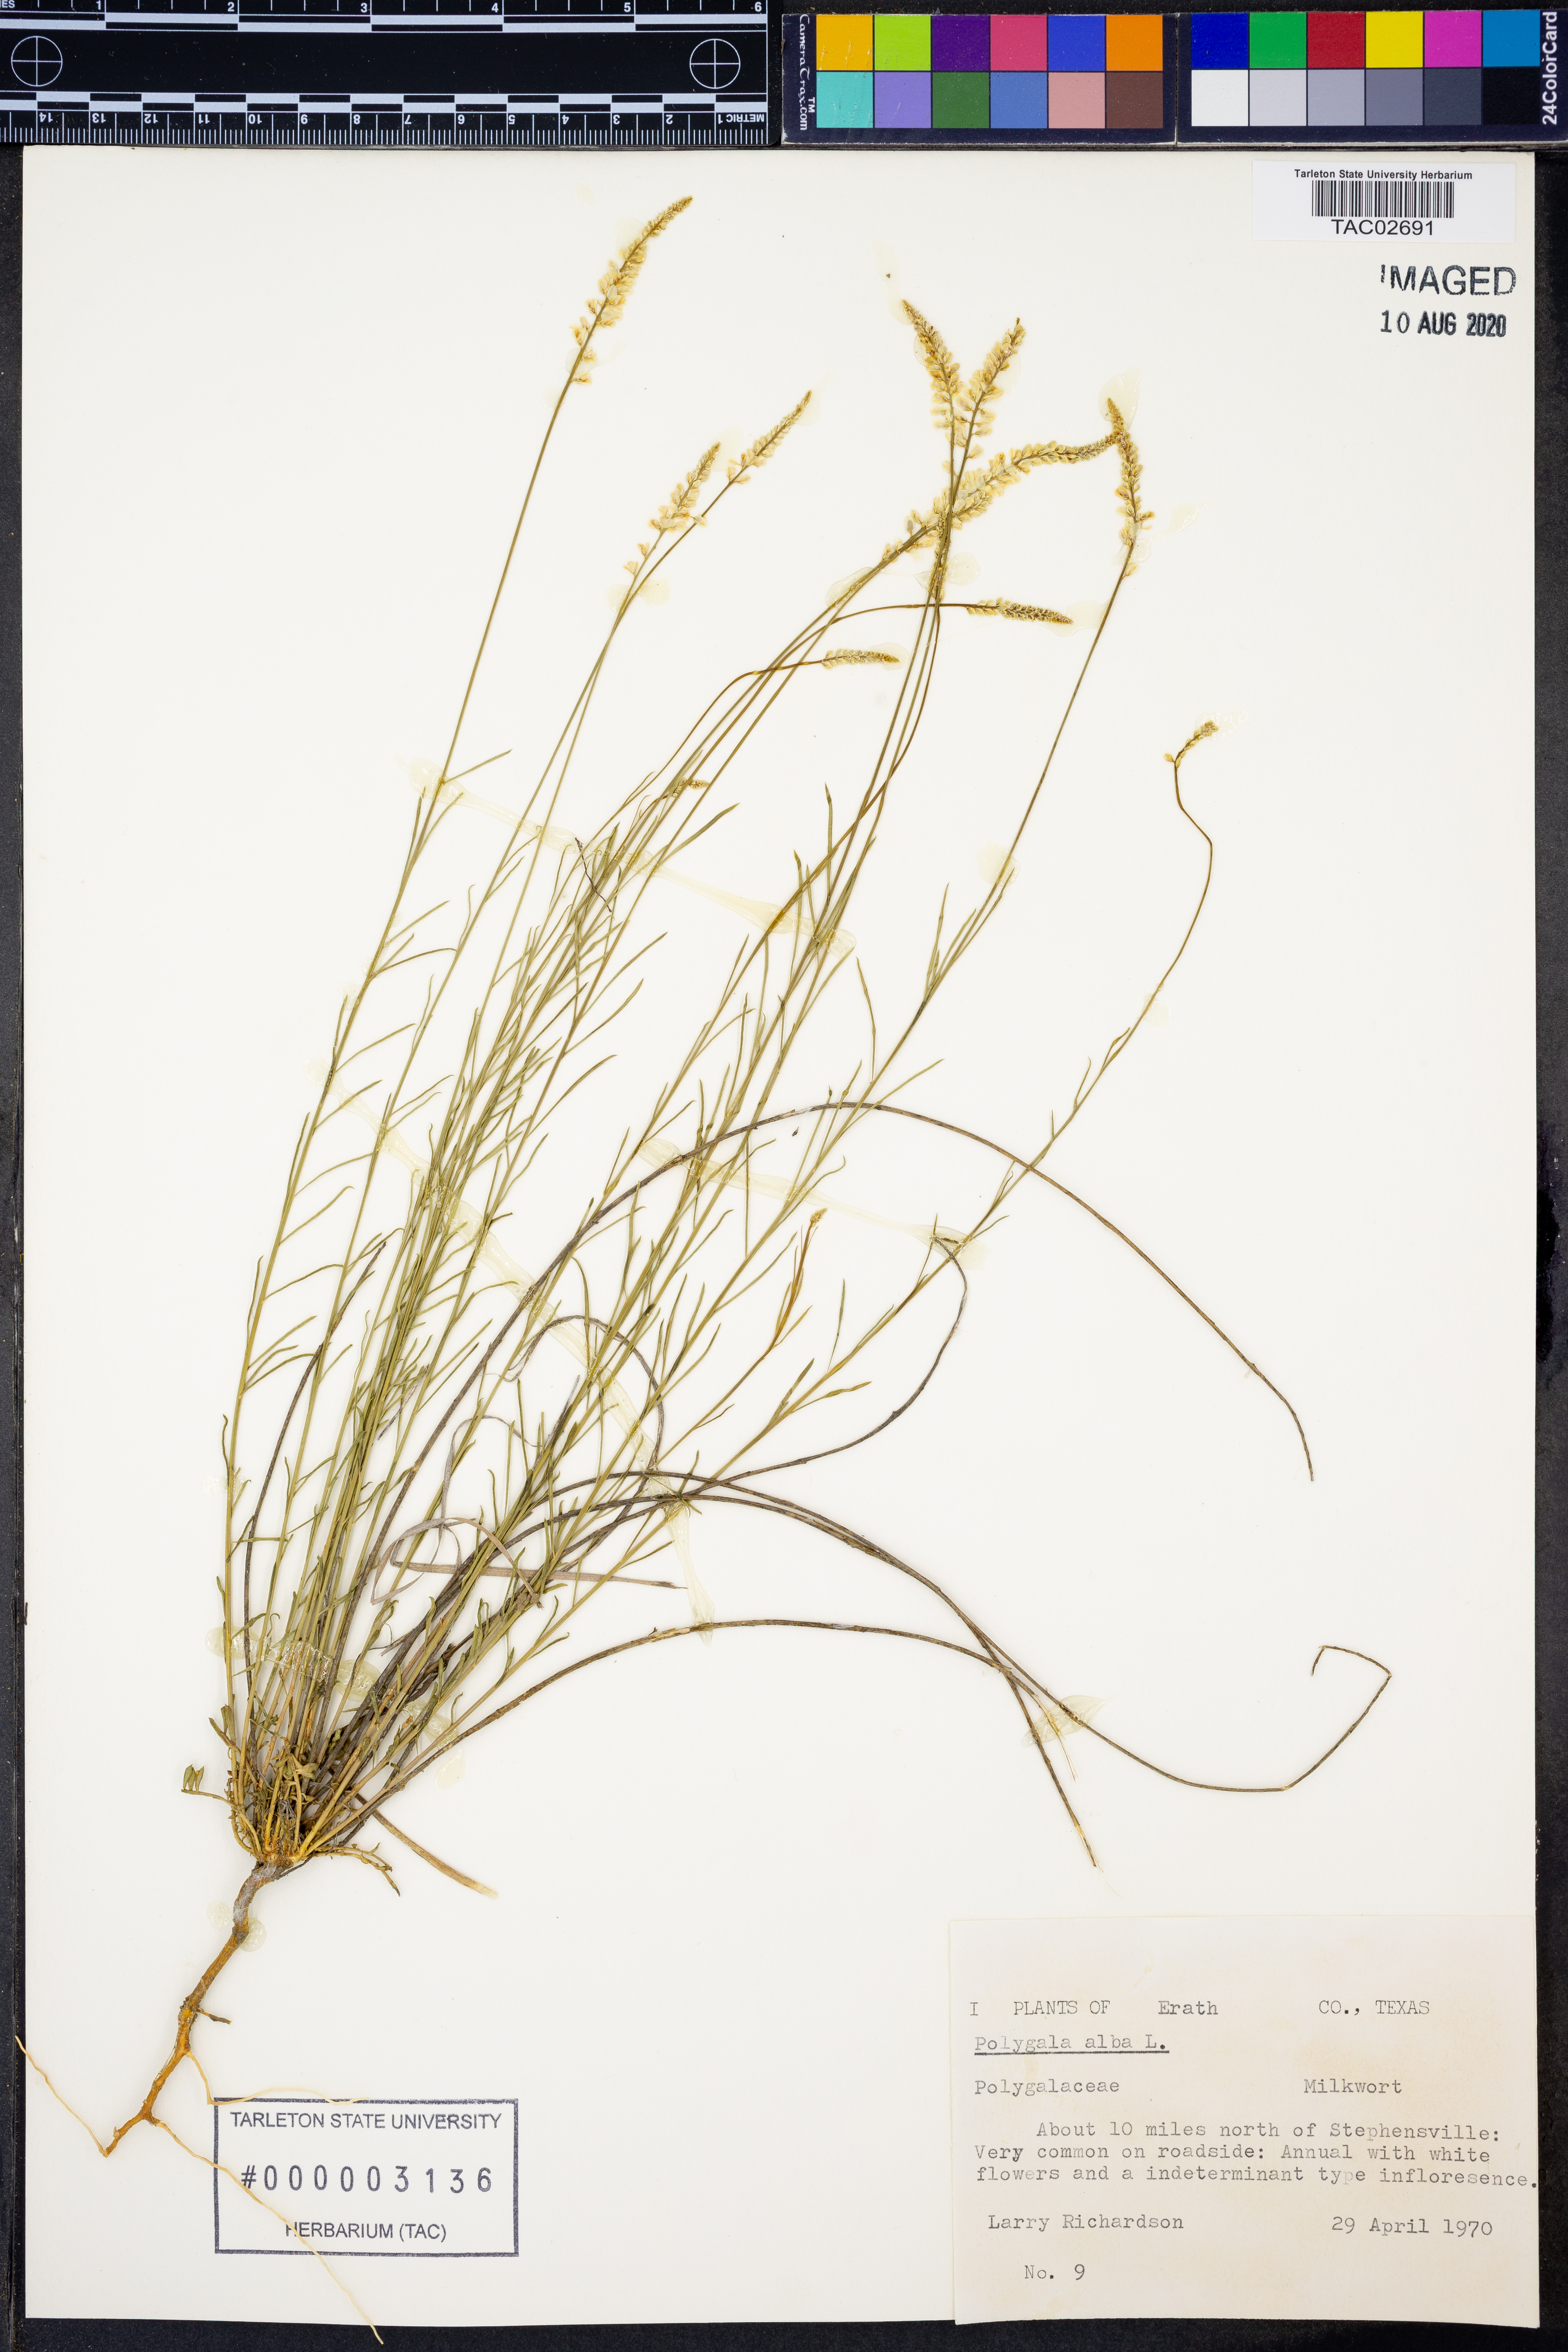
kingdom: Plantae
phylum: Tracheophyta
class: Magnoliopsida
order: Fabales
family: Polygalaceae
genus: Polygala
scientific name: Polygala alba
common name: White milkwort
